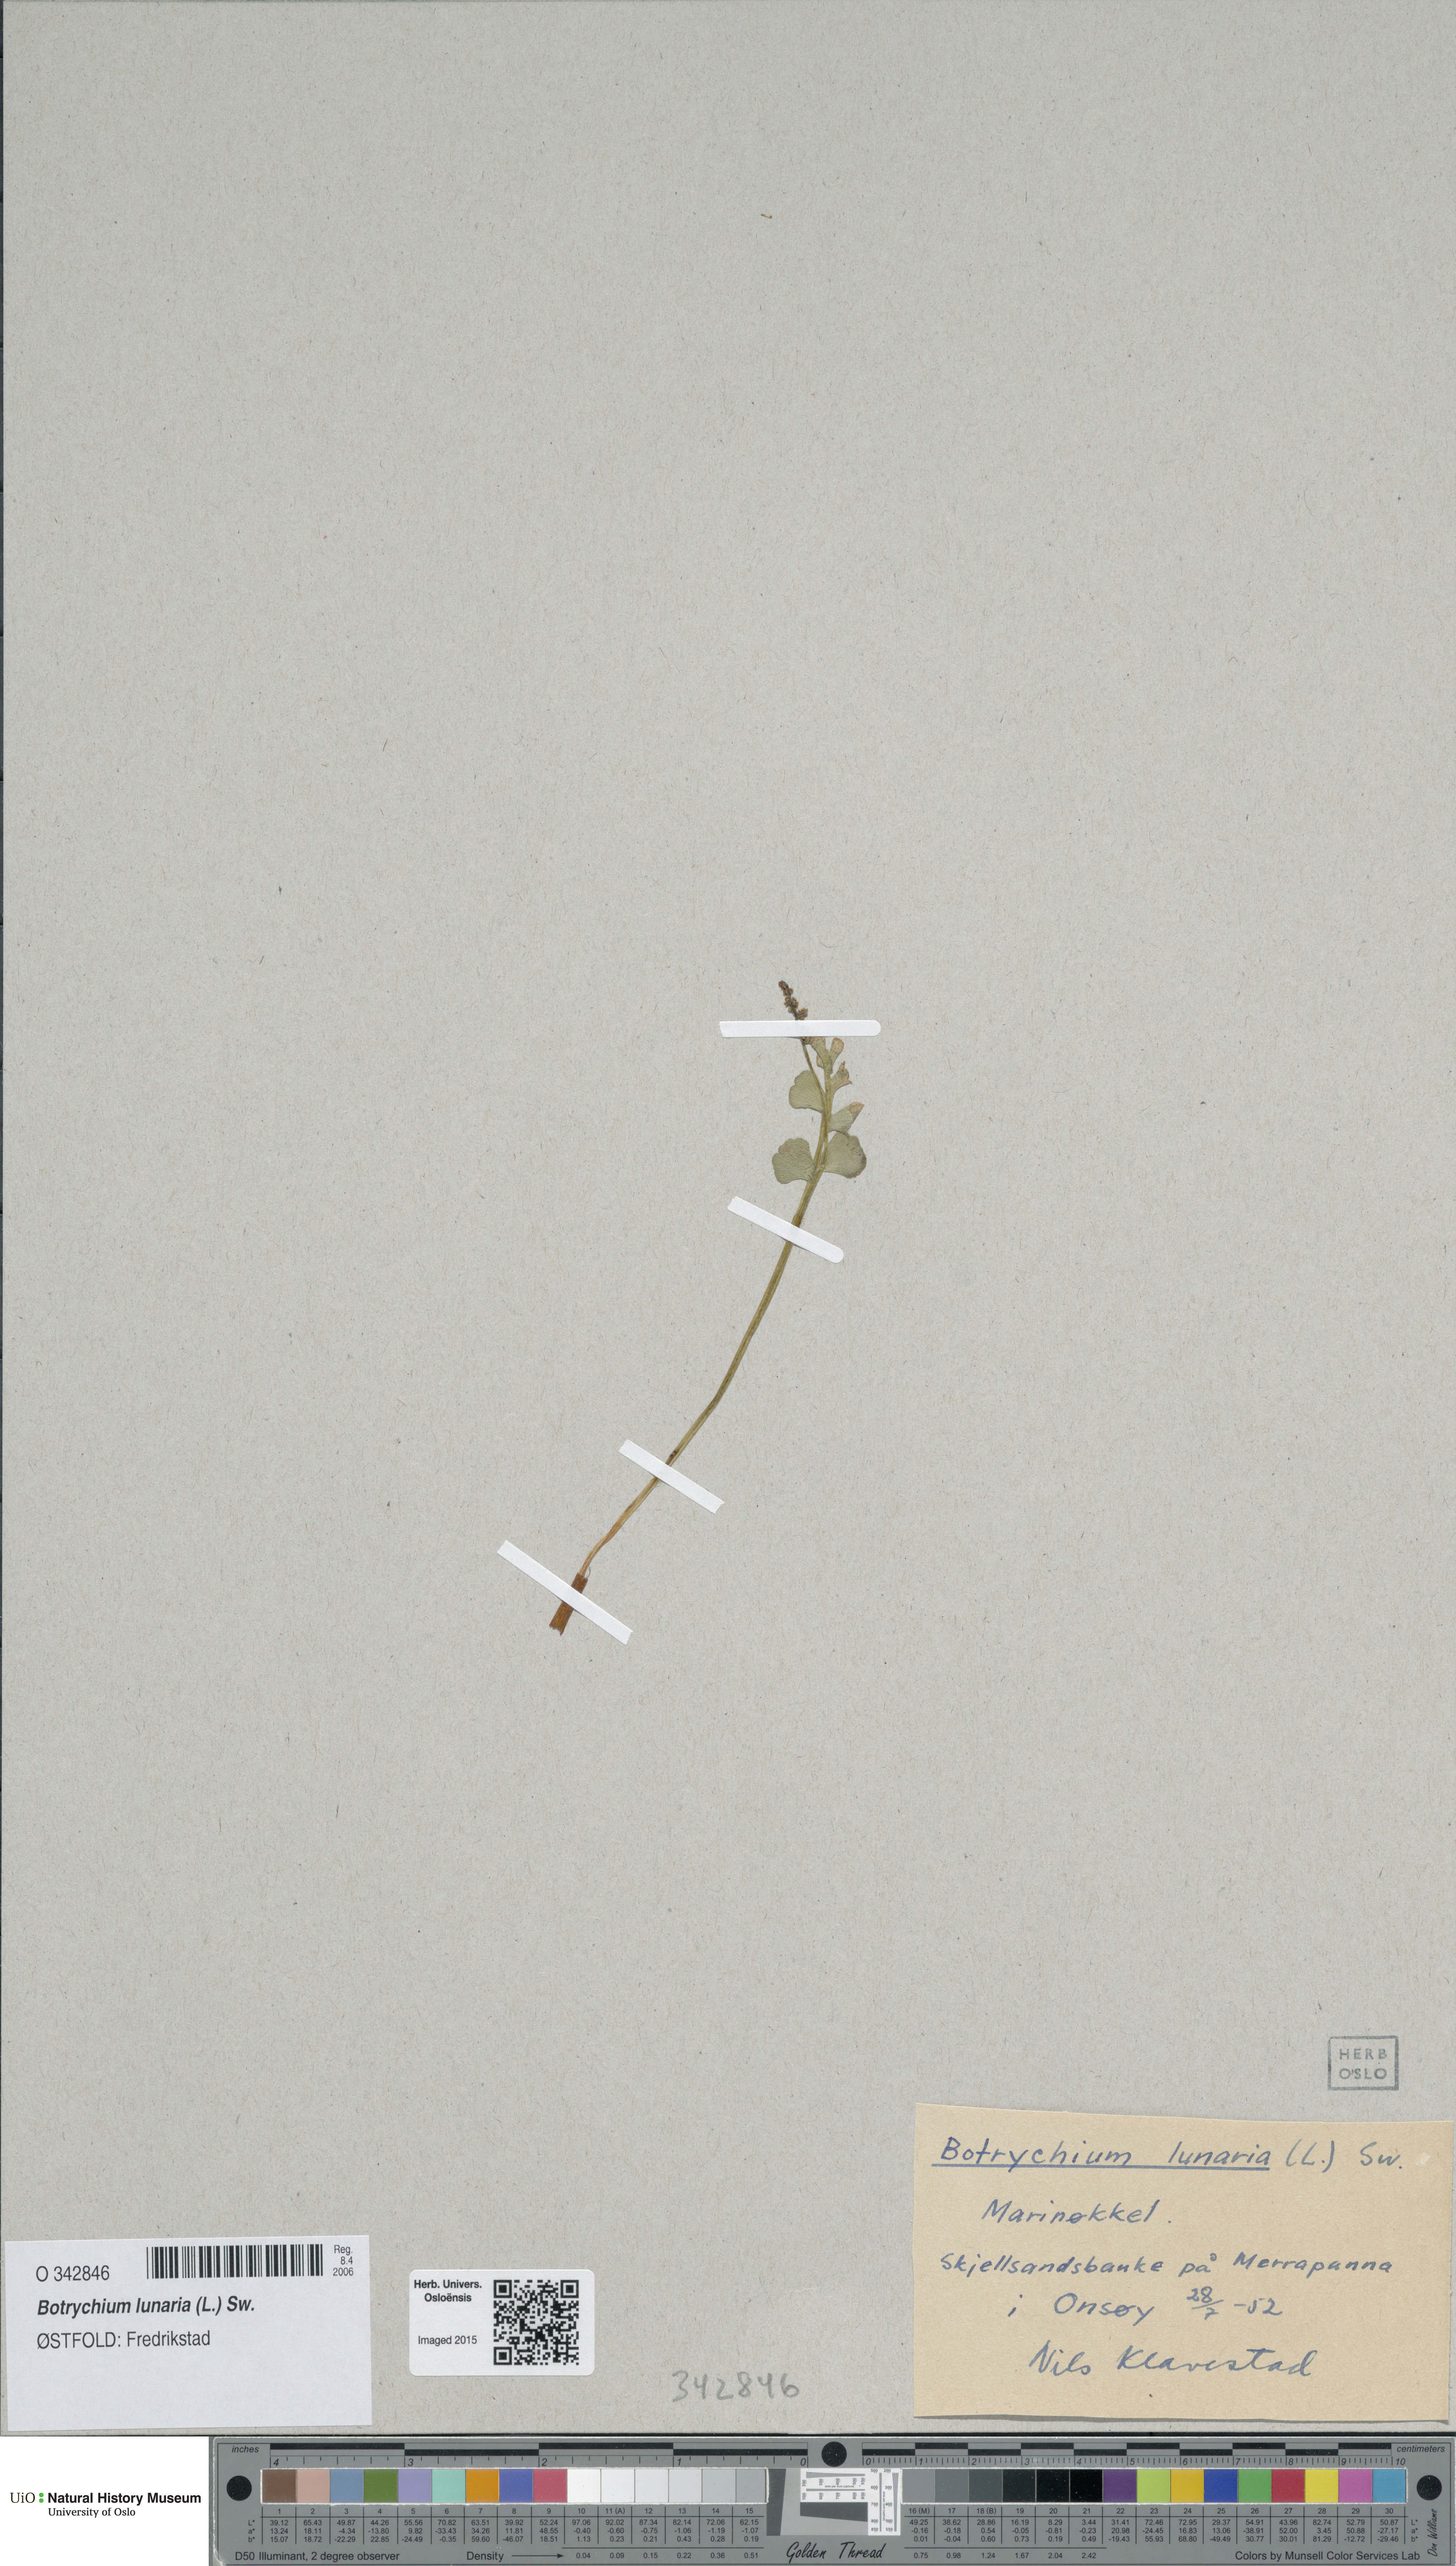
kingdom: Plantae
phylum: Tracheophyta
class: Polypodiopsida
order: Ophioglossales
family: Ophioglossaceae
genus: Botrychium
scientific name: Botrychium lunaria
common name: Moonwort
